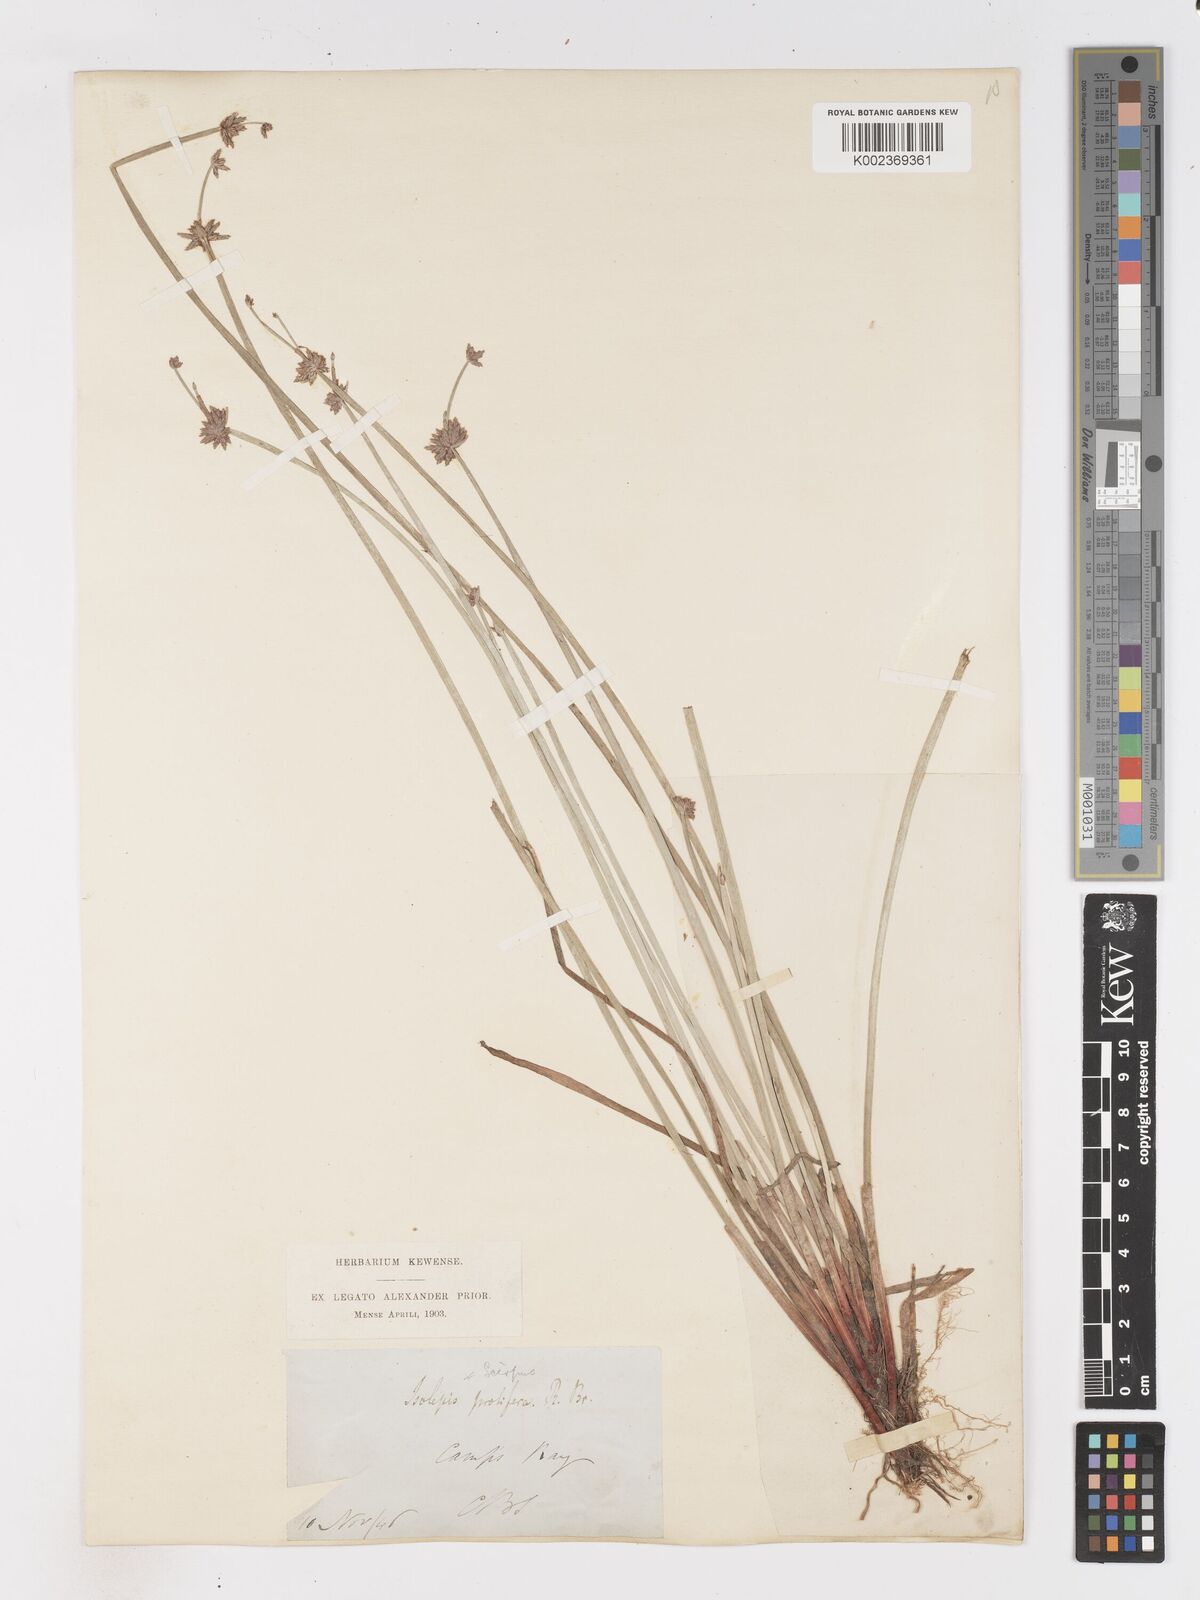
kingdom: Plantae
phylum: Tracheophyta
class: Liliopsida
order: Poales
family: Cyperaceae
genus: Isolepis
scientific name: Isolepis prolifera
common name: Proliferating bulrush
